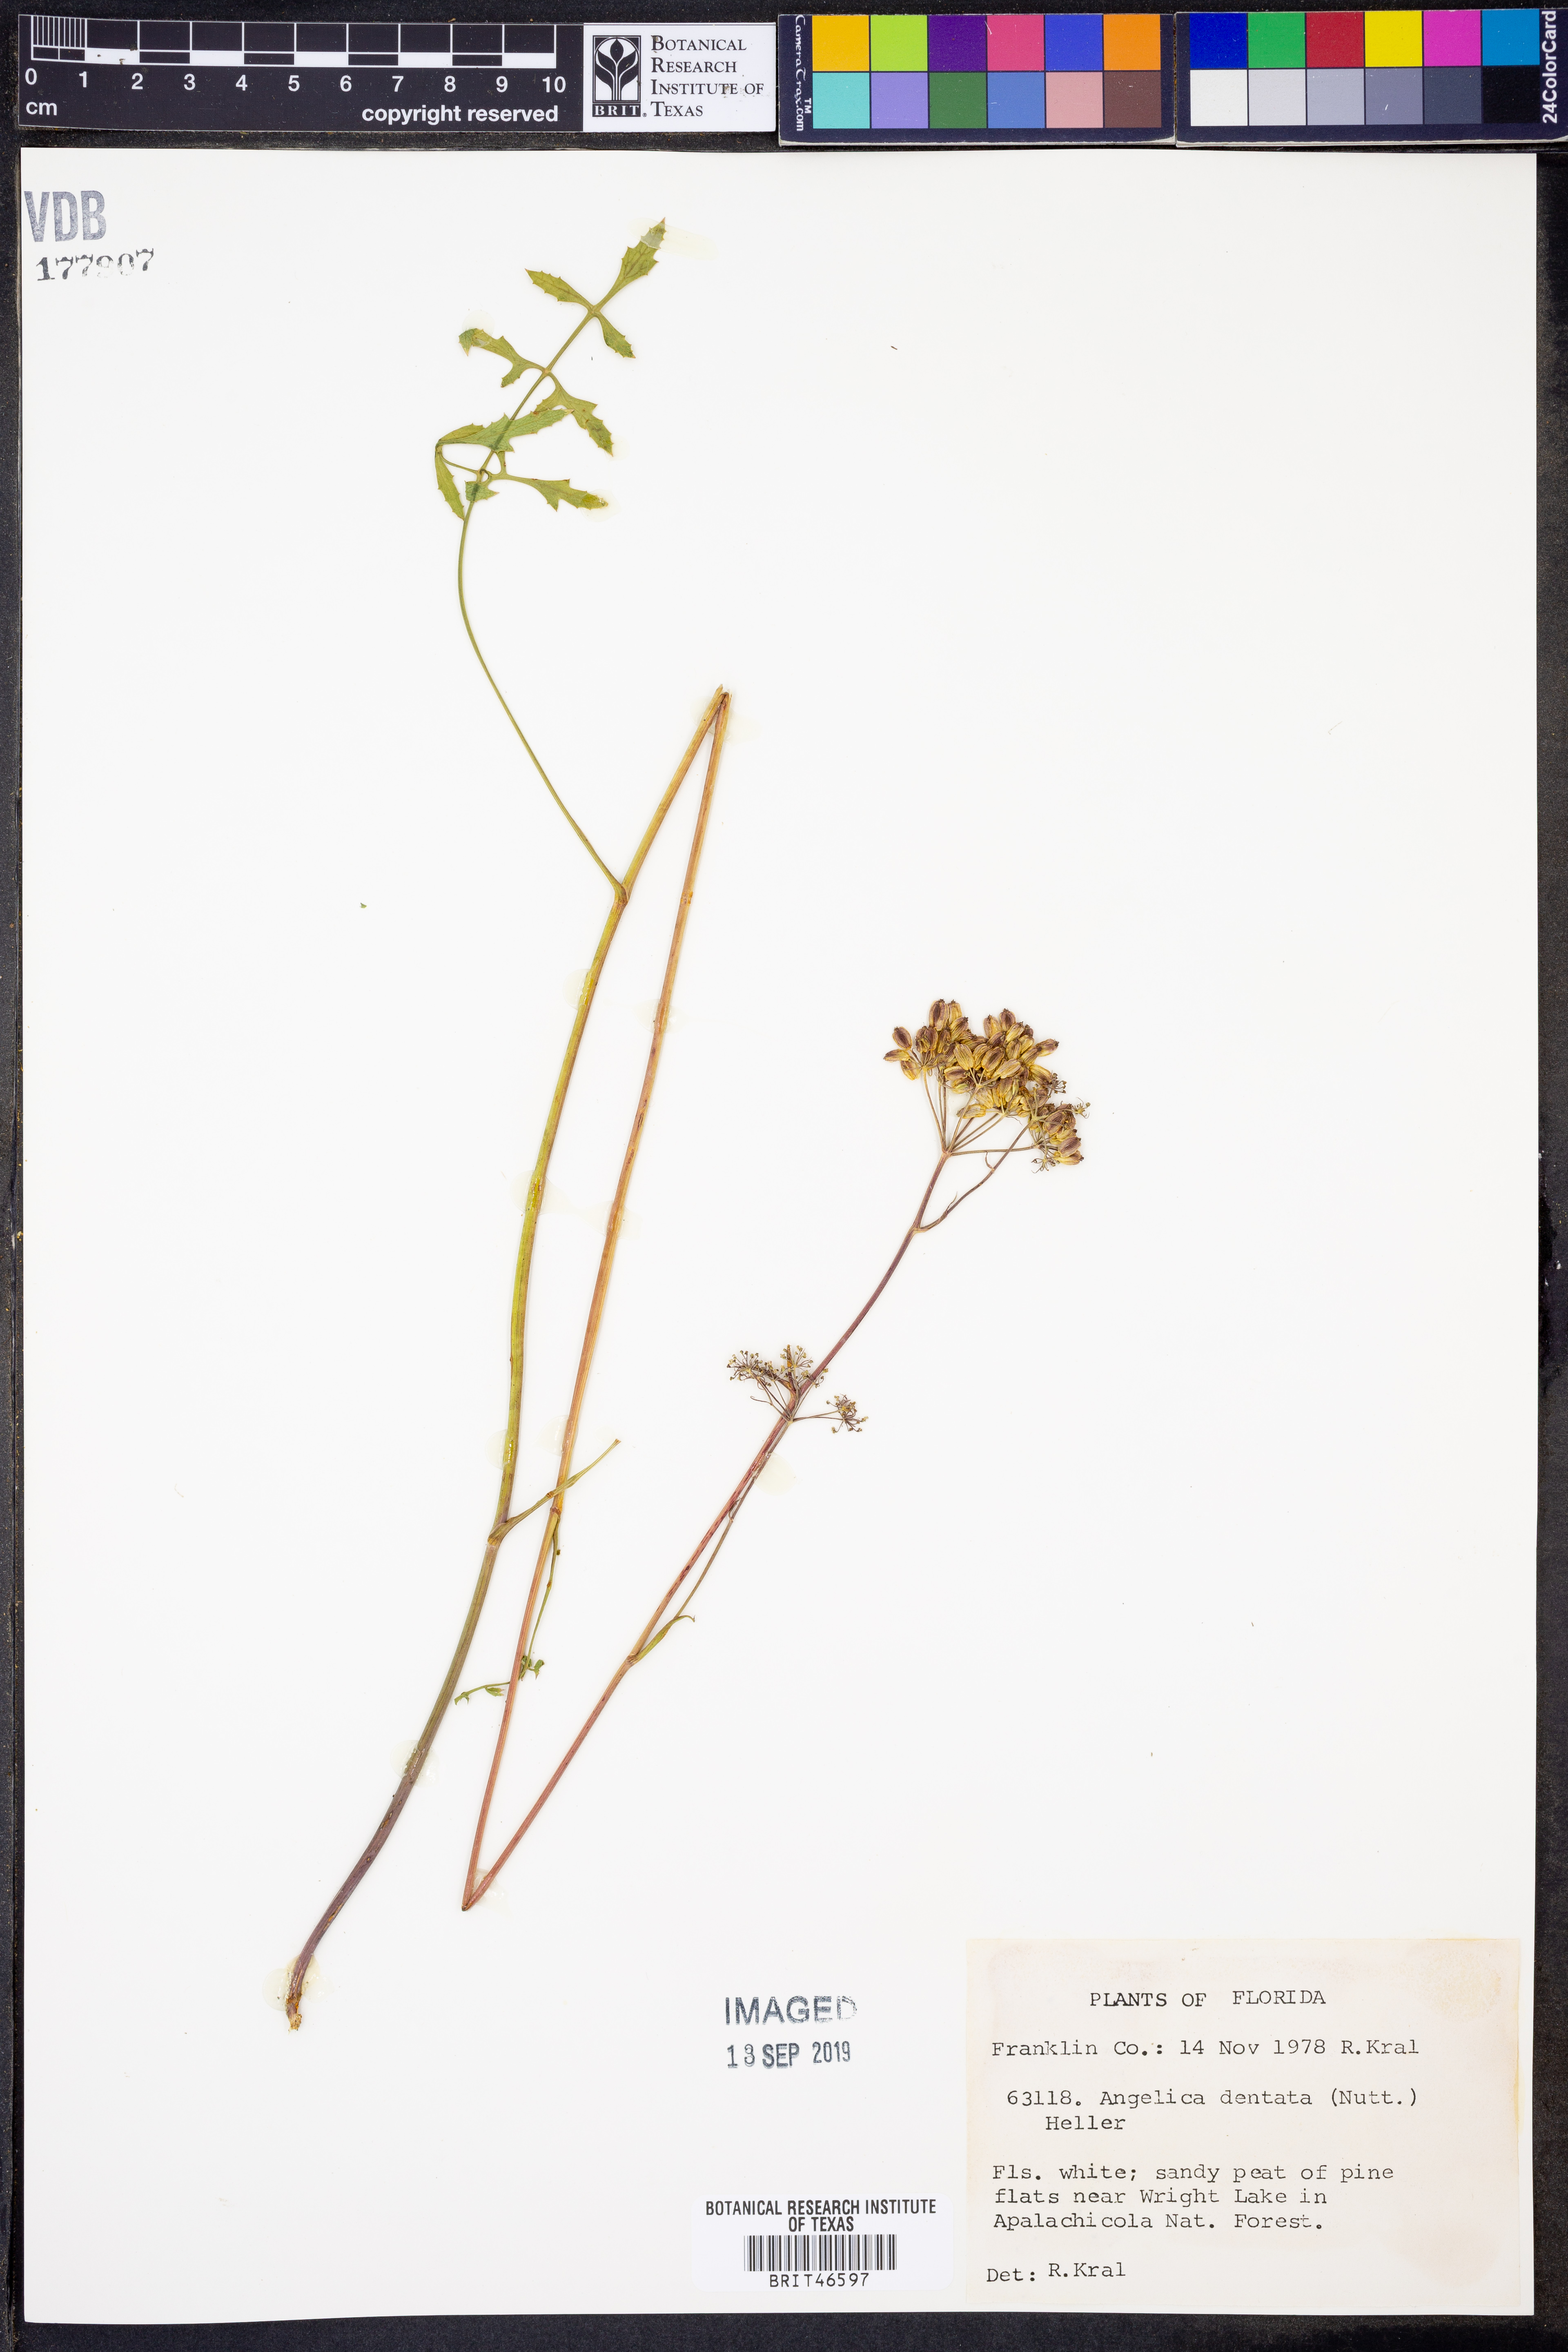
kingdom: Plantae
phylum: Tracheophyta
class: Magnoliopsida
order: Apiales
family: Apiaceae
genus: Angelica
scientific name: Angelica venenosa
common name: Hairy angelica
